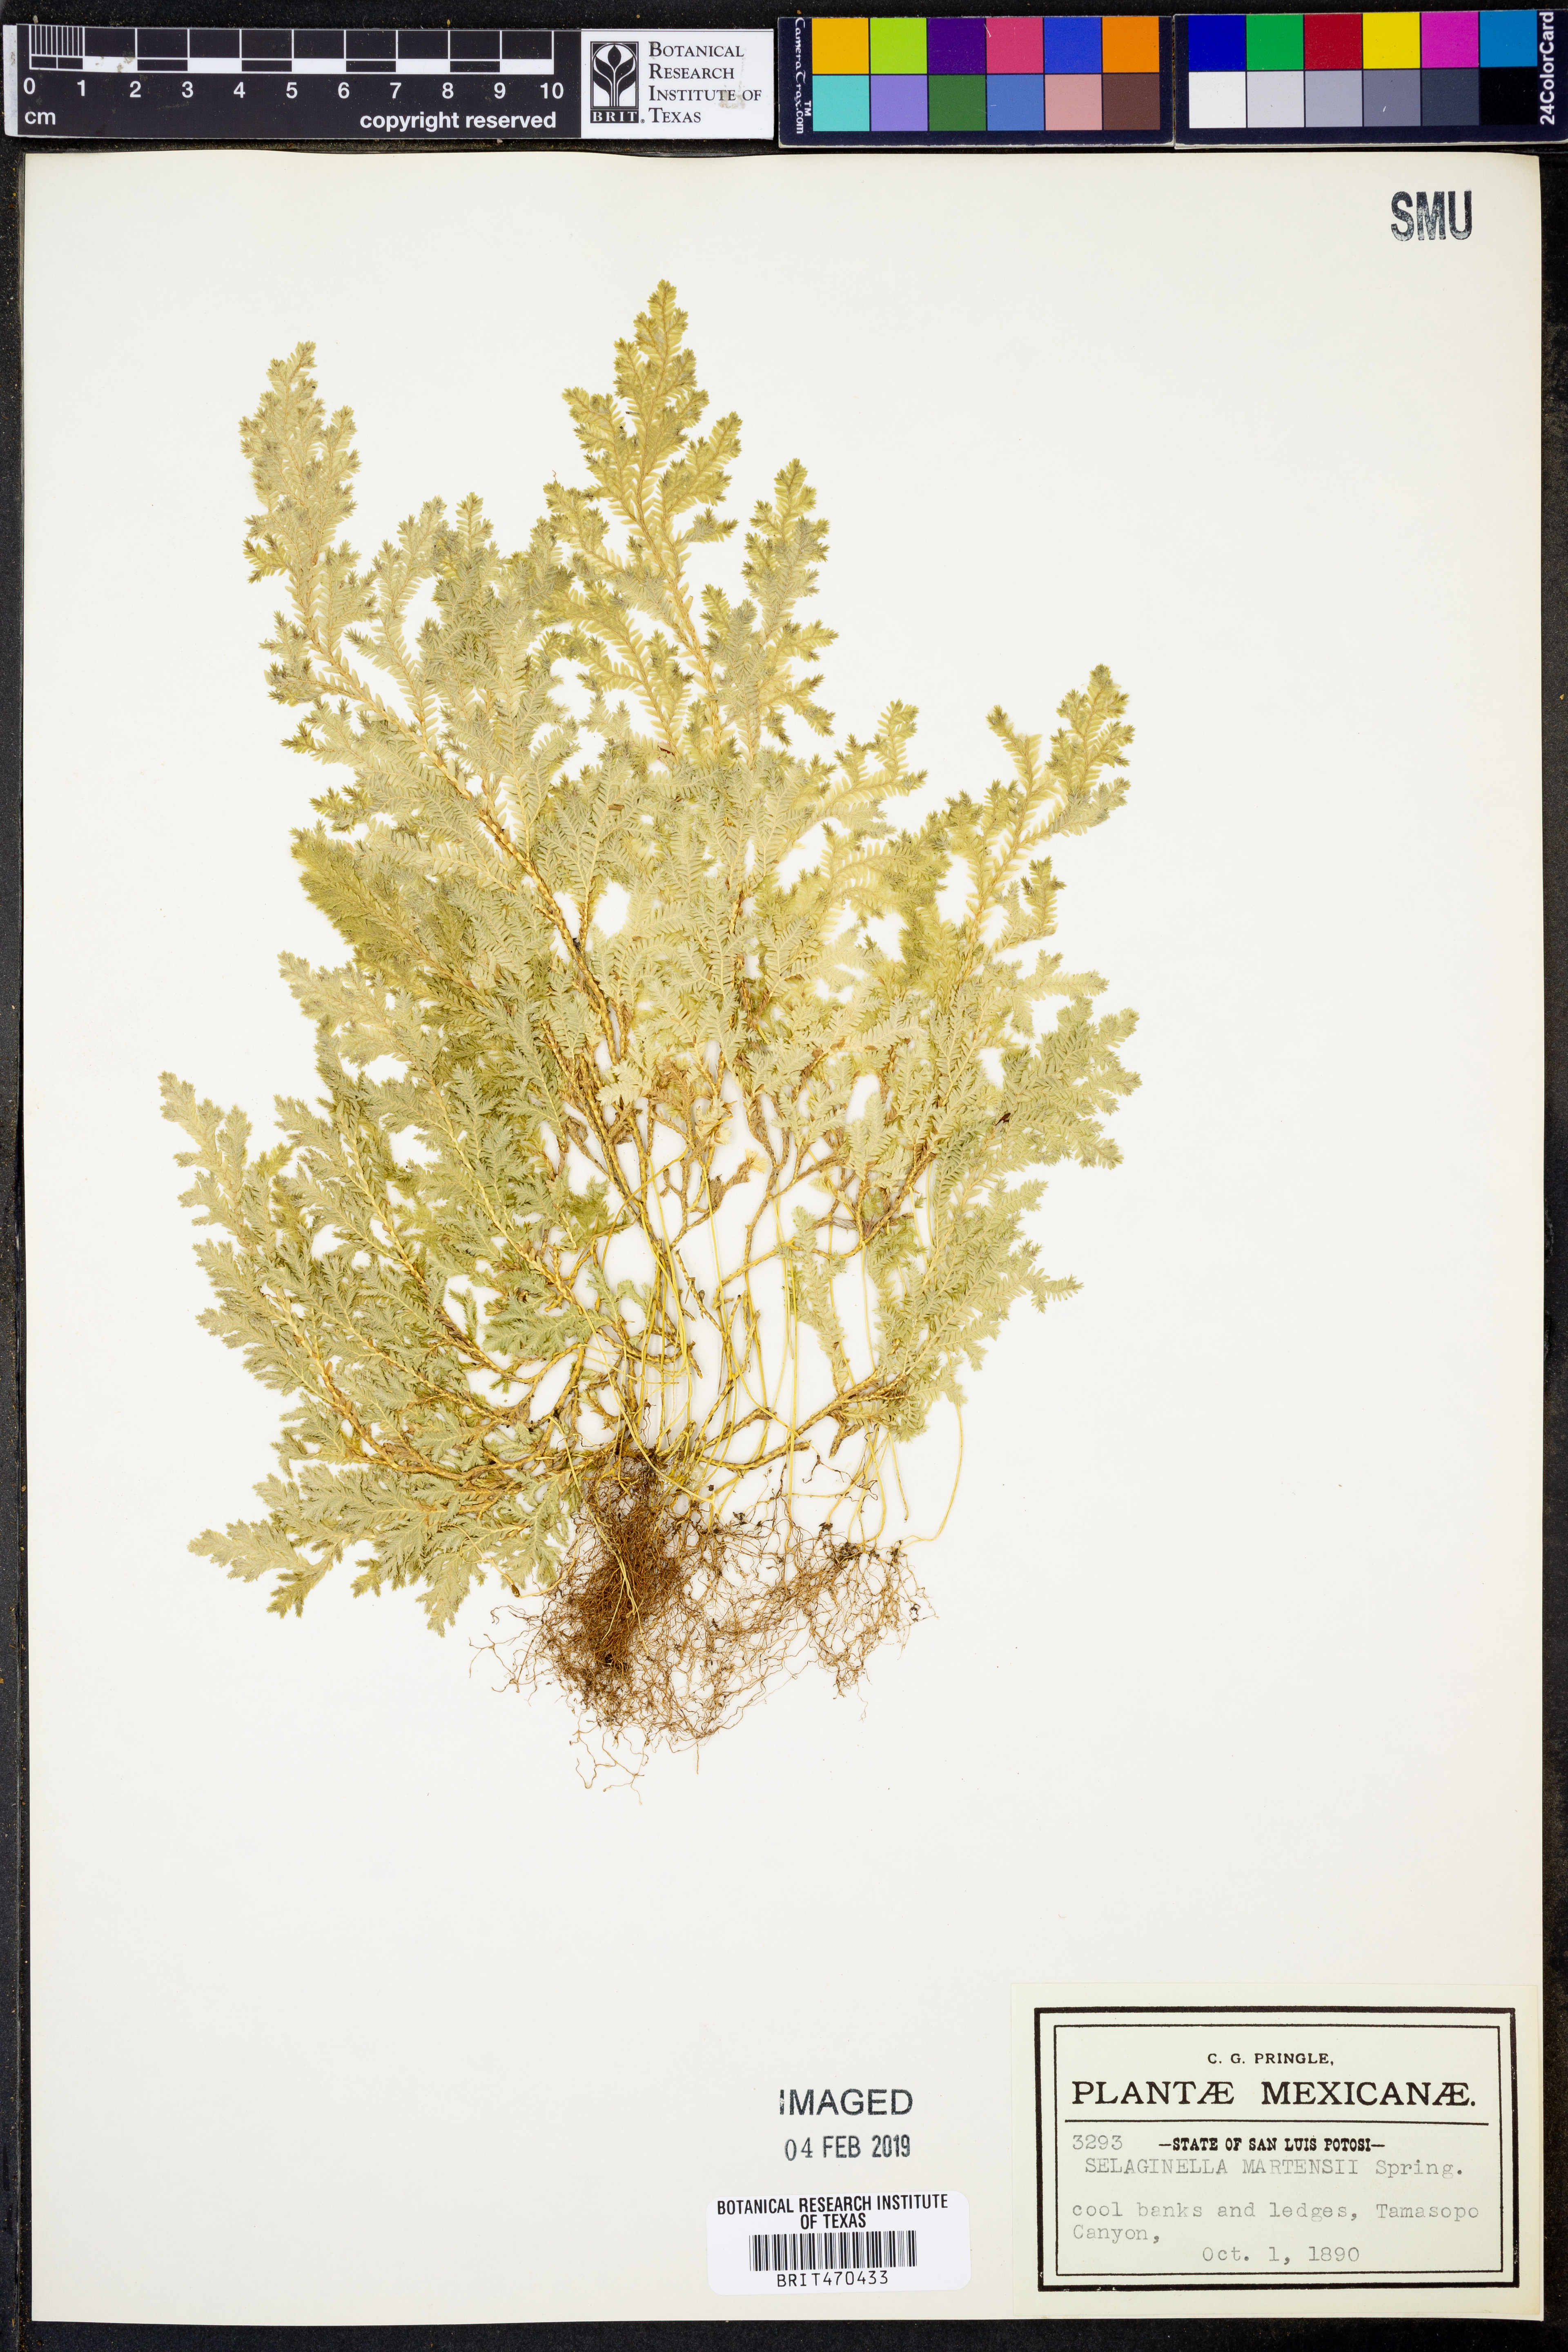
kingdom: Plantae
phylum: Tracheophyta
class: Lycopodiopsida
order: Selaginellales
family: Selaginellaceae
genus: Selaginella
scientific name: Selaginella martensii
